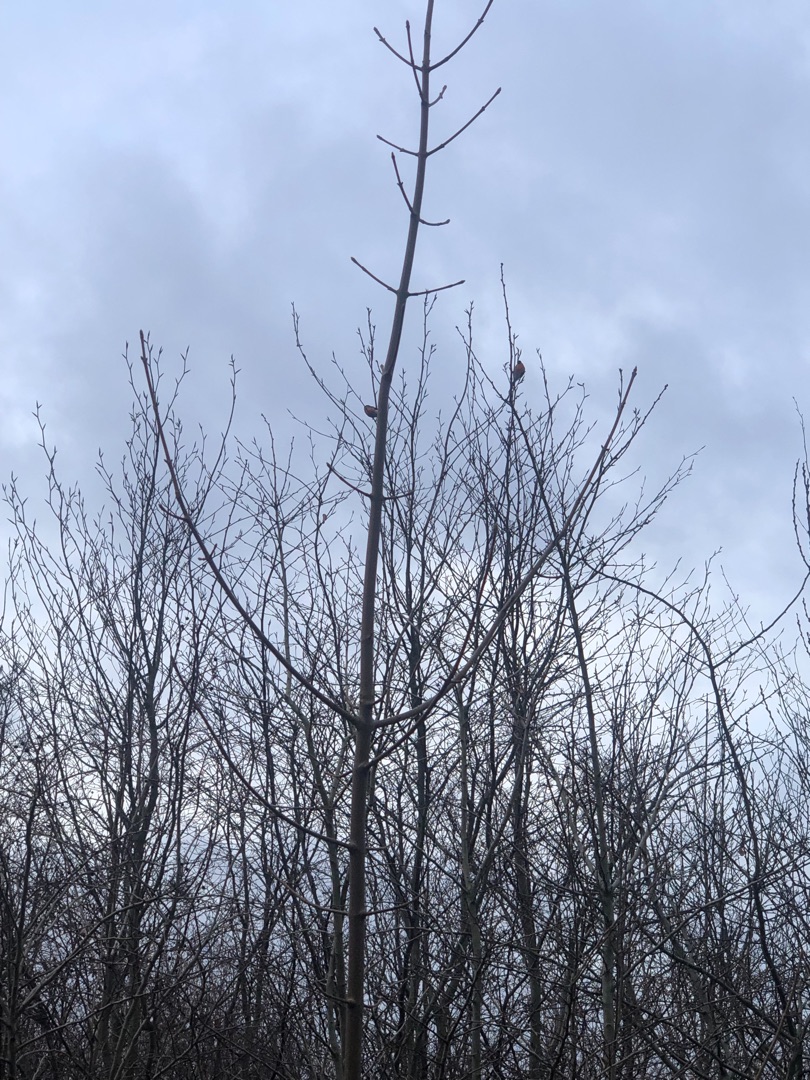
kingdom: Animalia
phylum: Chordata
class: Aves
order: Passeriformes
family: Fringillidae
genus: Pyrrhula
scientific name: Pyrrhula pyrrhula
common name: Dompap
